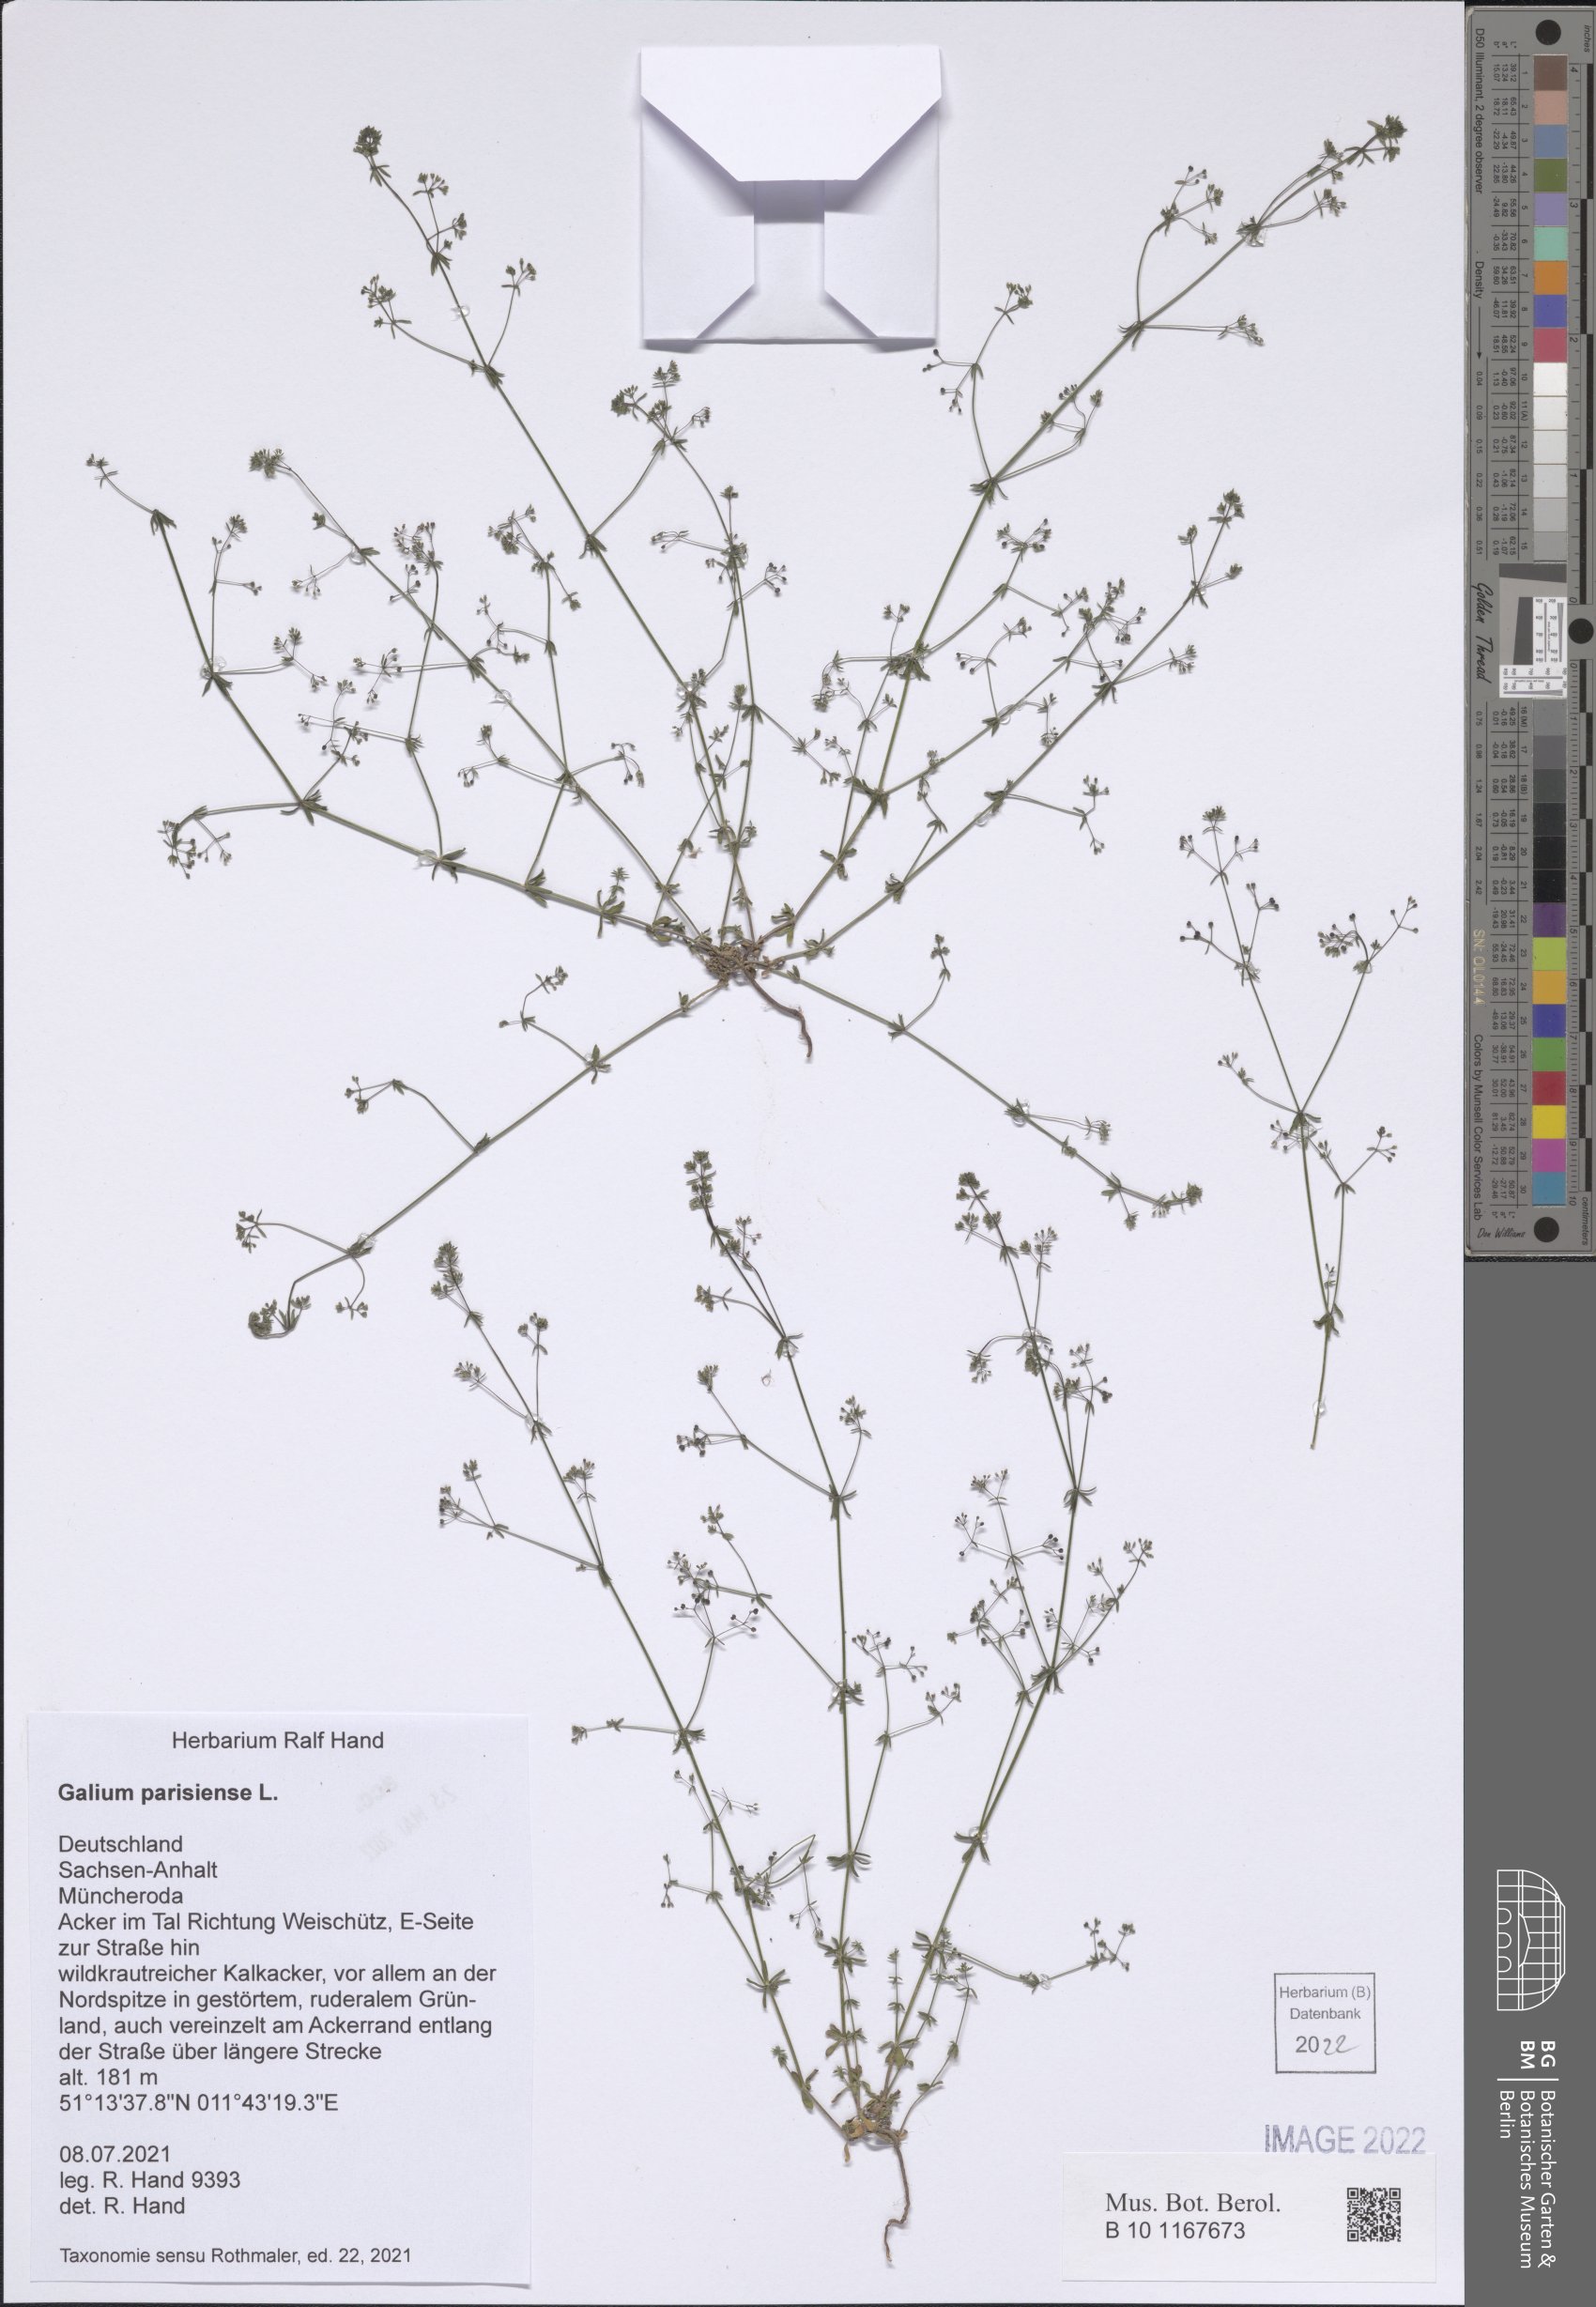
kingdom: Plantae
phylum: Tracheophyta
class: Magnoliopsida
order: Gentianales
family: Rubiaceae
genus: Galium
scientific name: Galium parisiense
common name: Wall bedstraw
